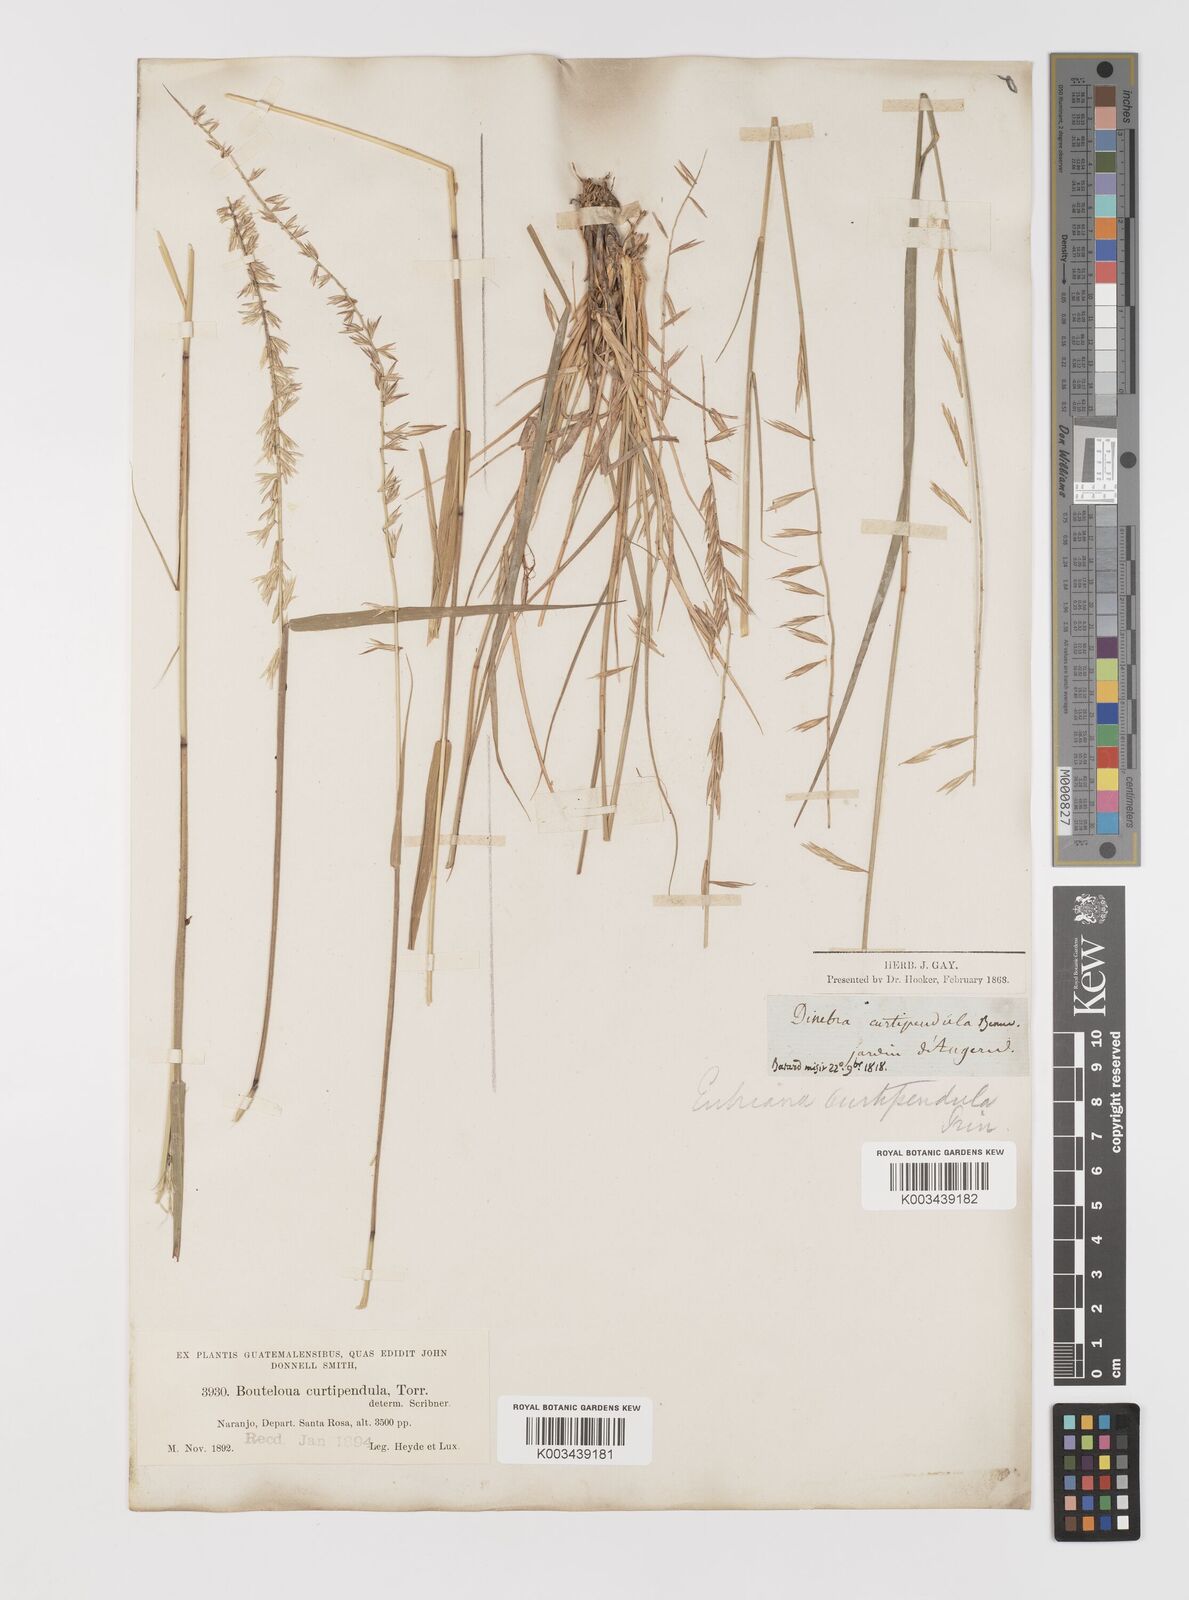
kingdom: Plantae
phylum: Tracheophyta
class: Liliopsida
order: Poales
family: Poaceae
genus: Bouteloua
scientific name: Bouteloua curtipendula
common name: Side-oats grama
